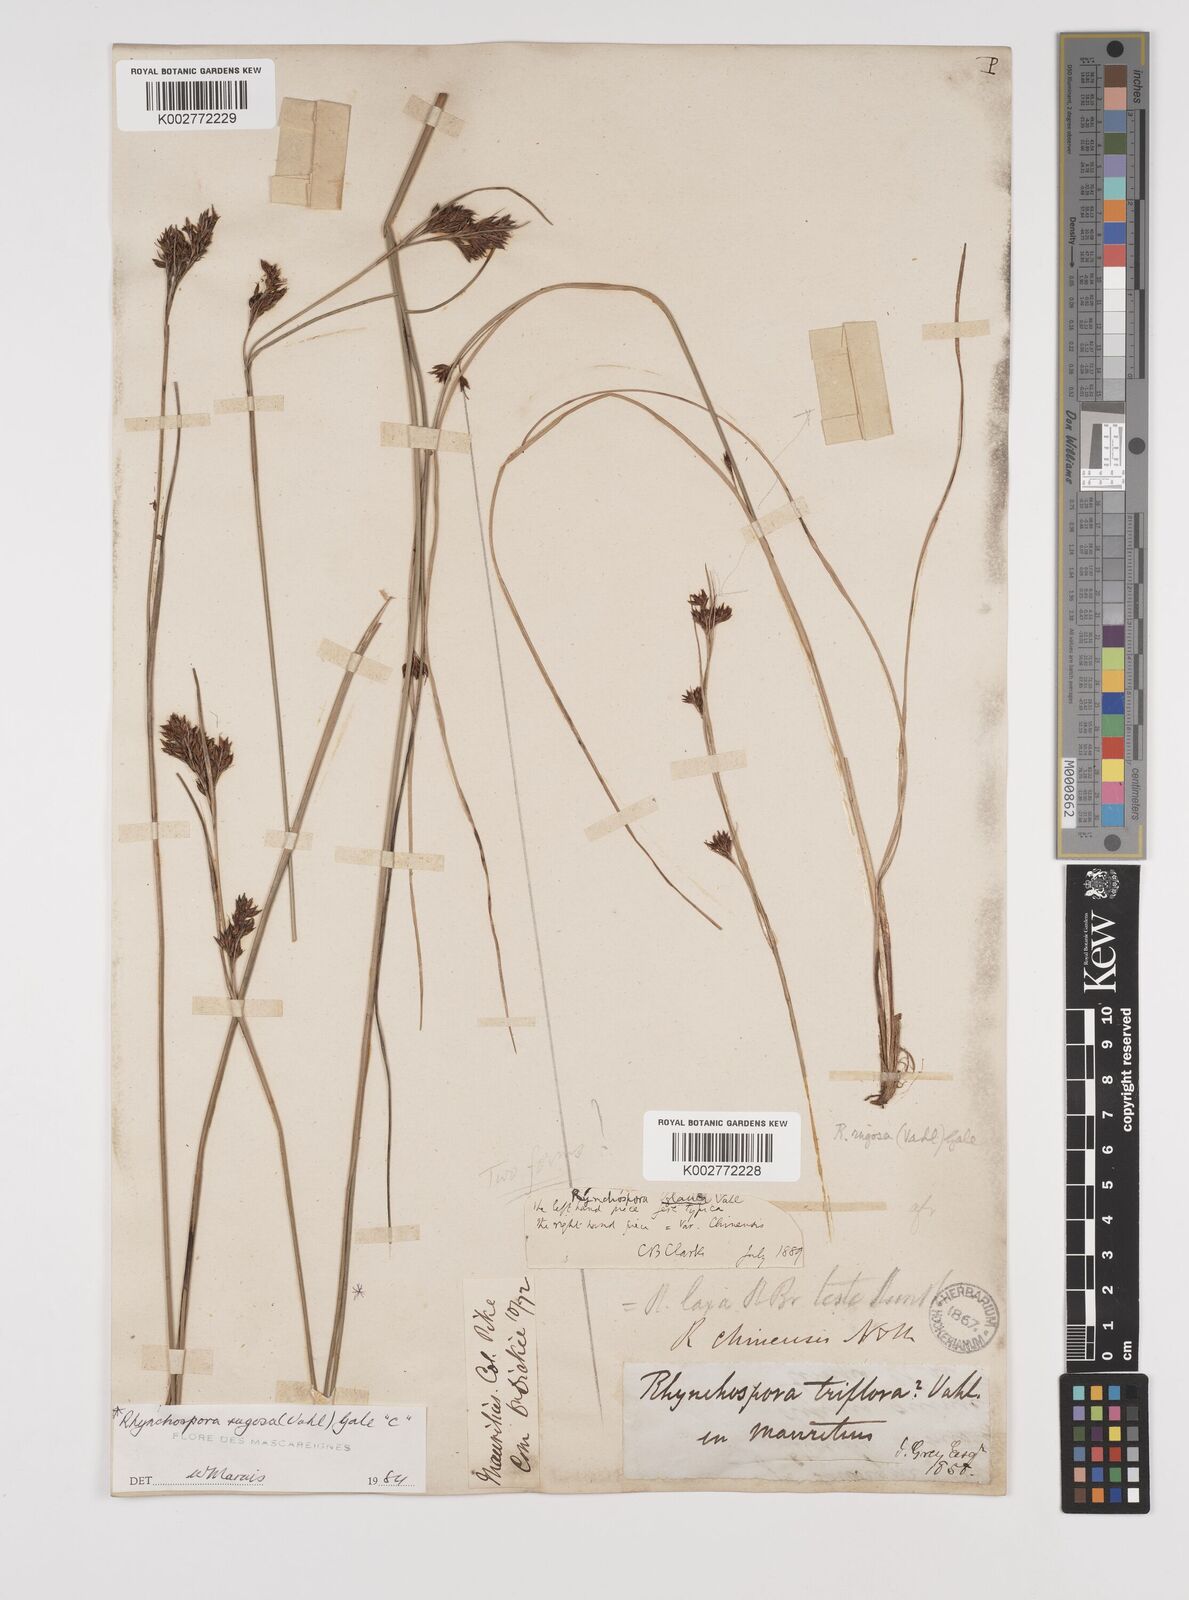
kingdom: Plantae
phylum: Tracheophyta
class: Liliopsida
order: Poales
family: Cyperaceae
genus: Rhynchospora
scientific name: Rhynchospora rugosa
